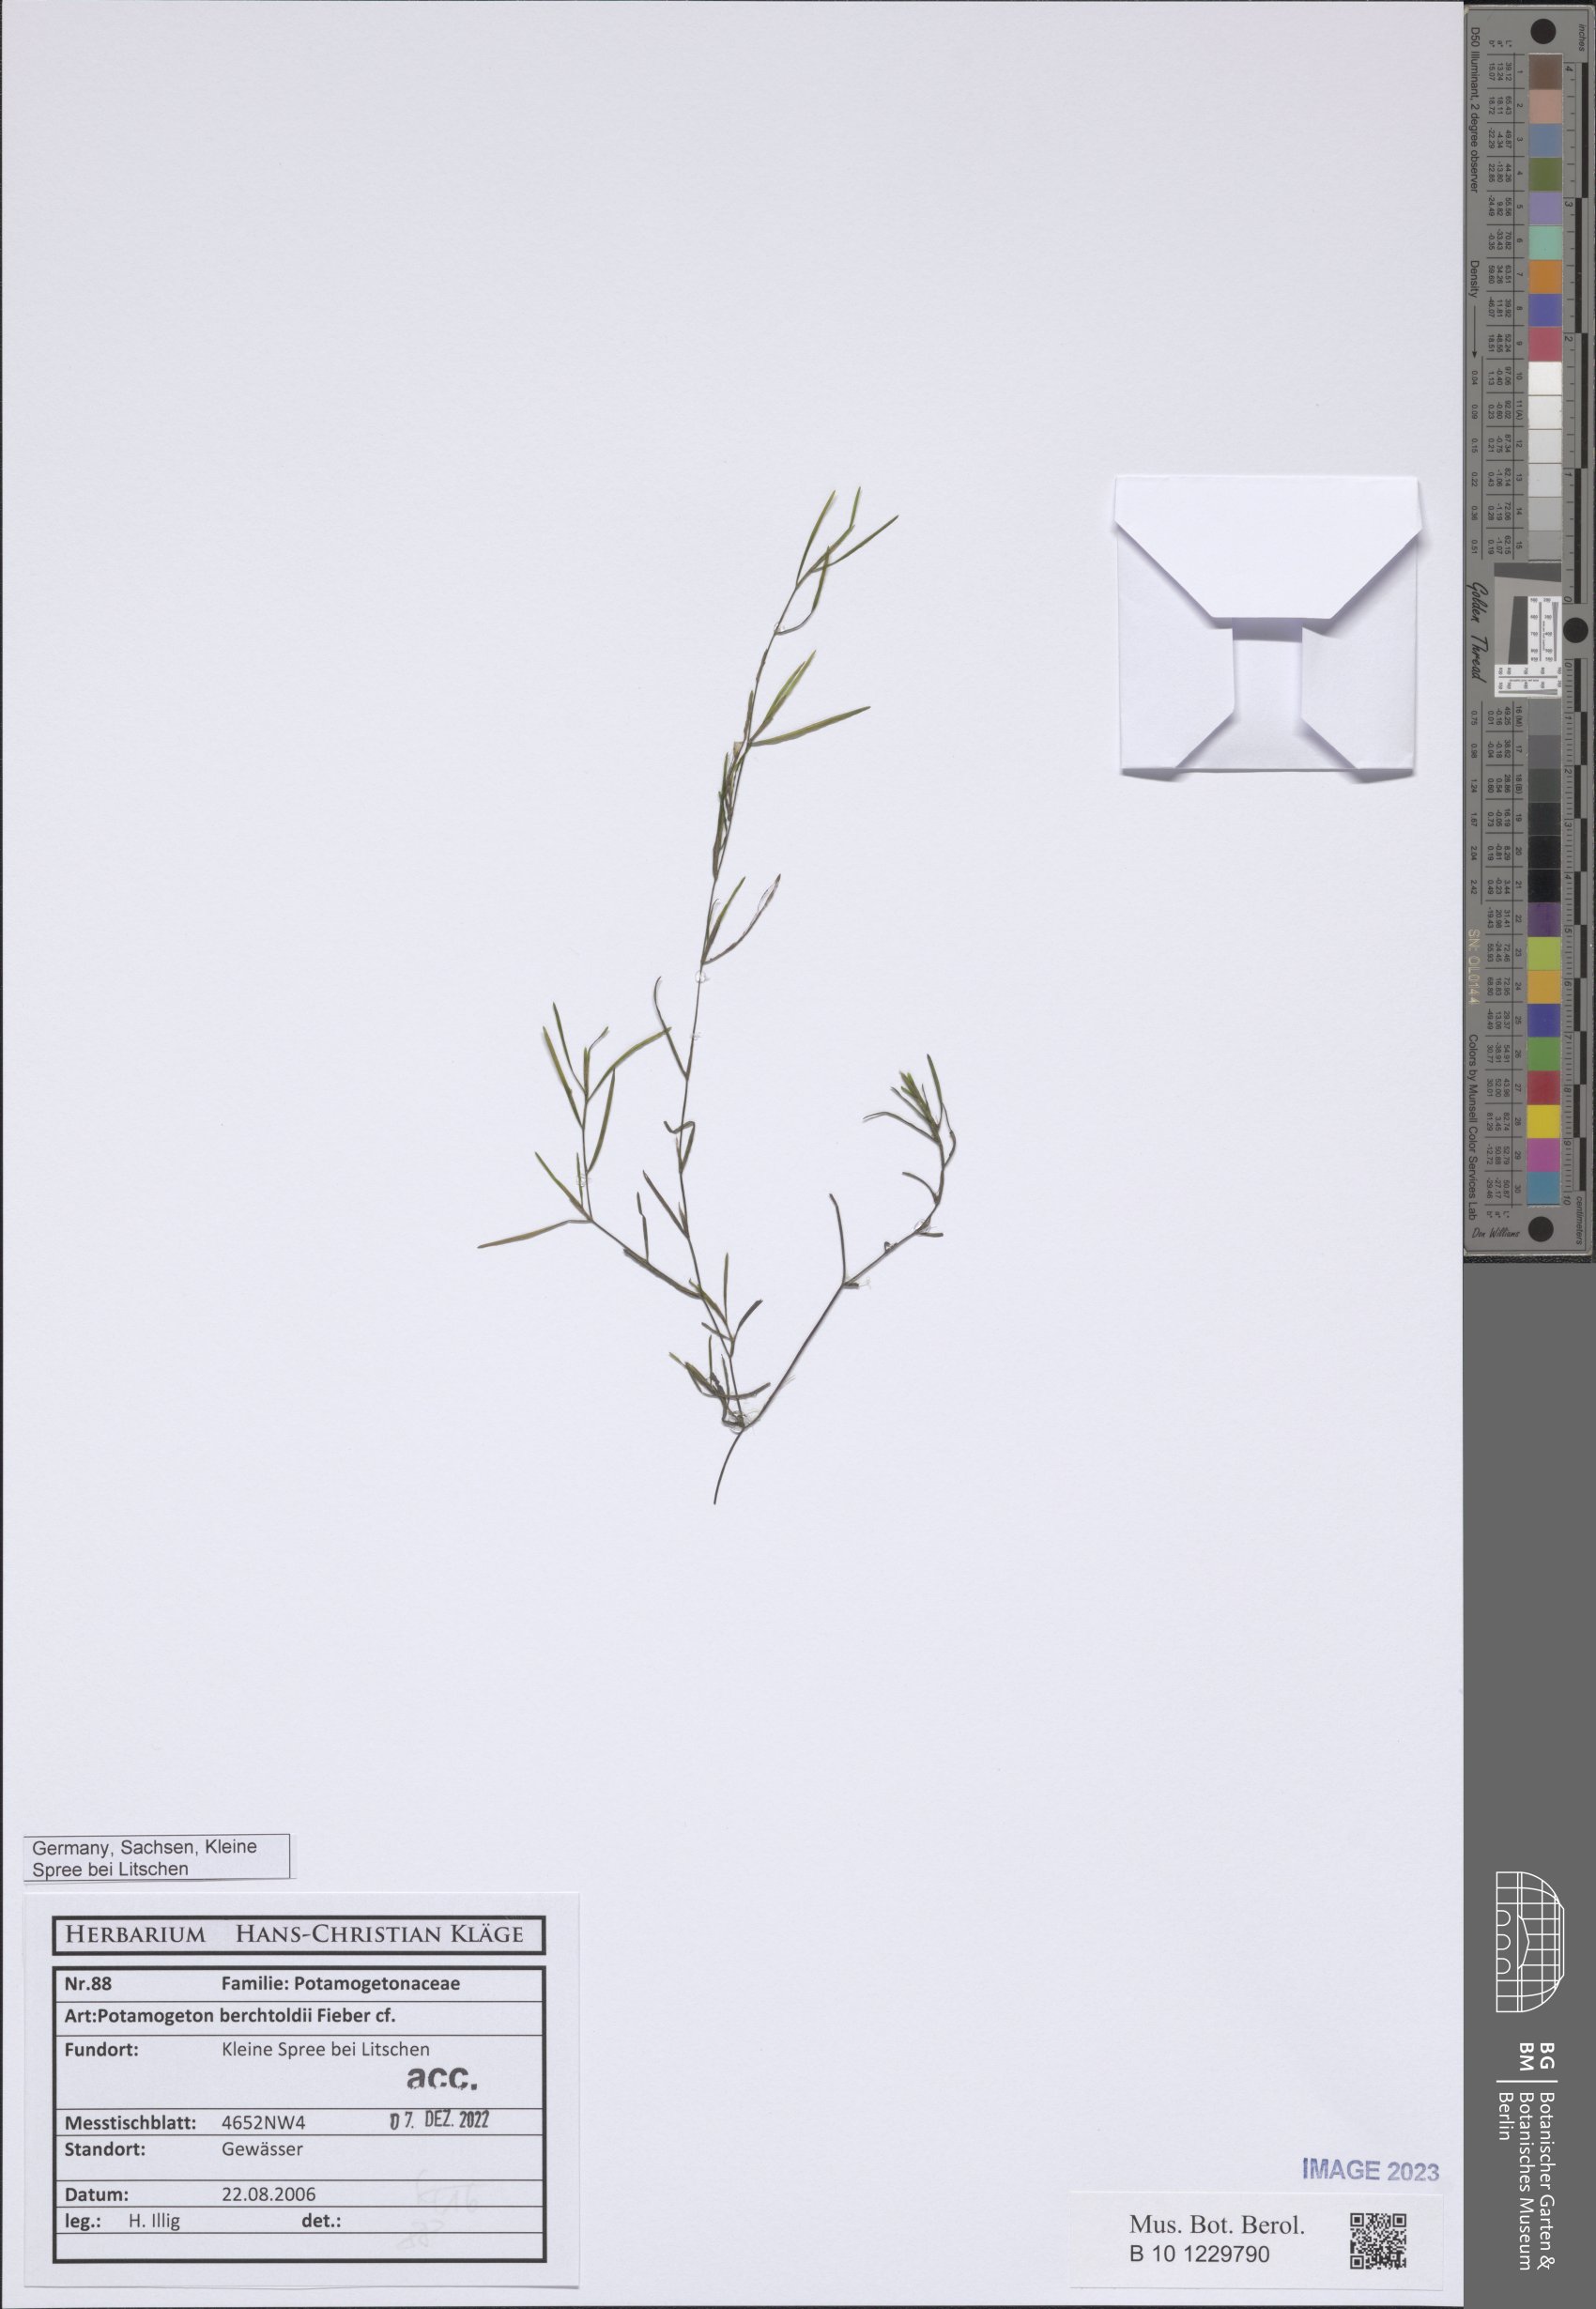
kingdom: Plantae
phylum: Tracheophyta
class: Liliopsida
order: Alismatales
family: Potamogetonaceae
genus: Stuckenia
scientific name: Stuckenia pectinata
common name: Sago pondweed
